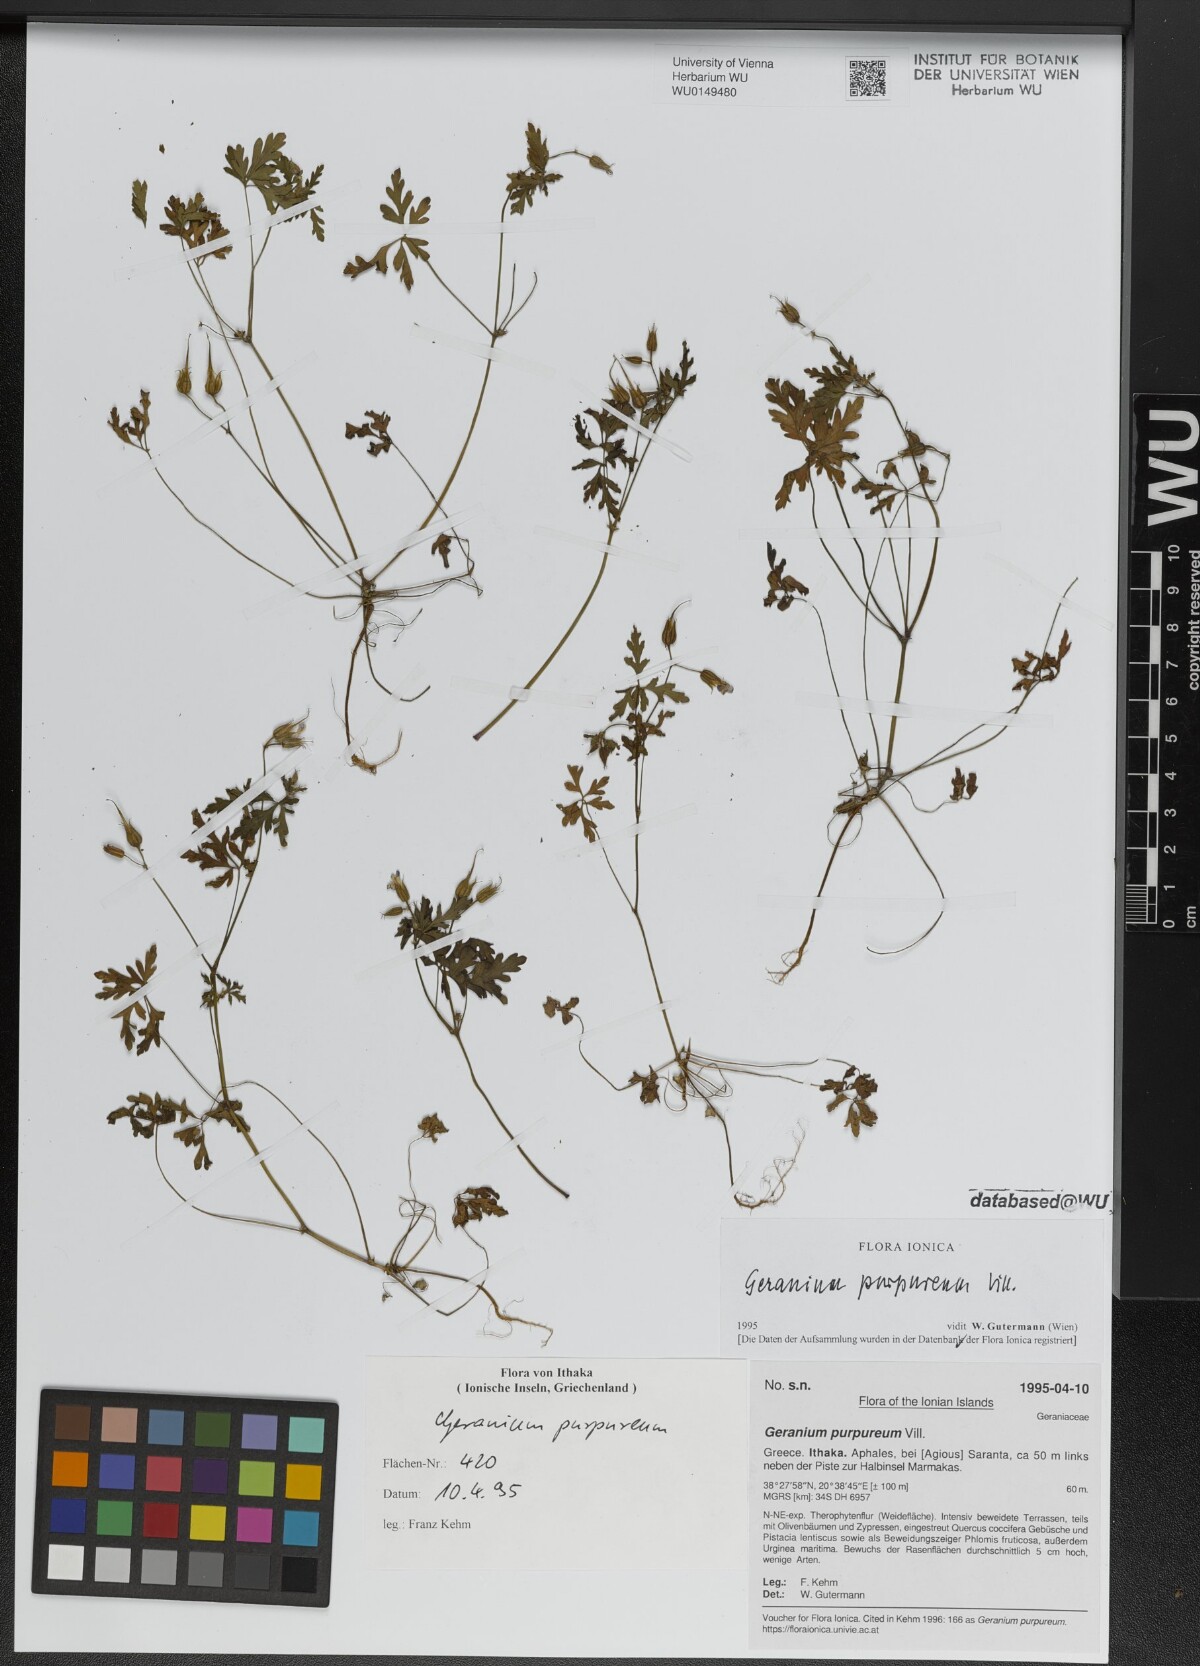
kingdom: Plantae
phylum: Tracheophyta
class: Magnoliopsida
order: Geraniales
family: Geraniaceae
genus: Geranium
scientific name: Geranium purpureum
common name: Little-robin
